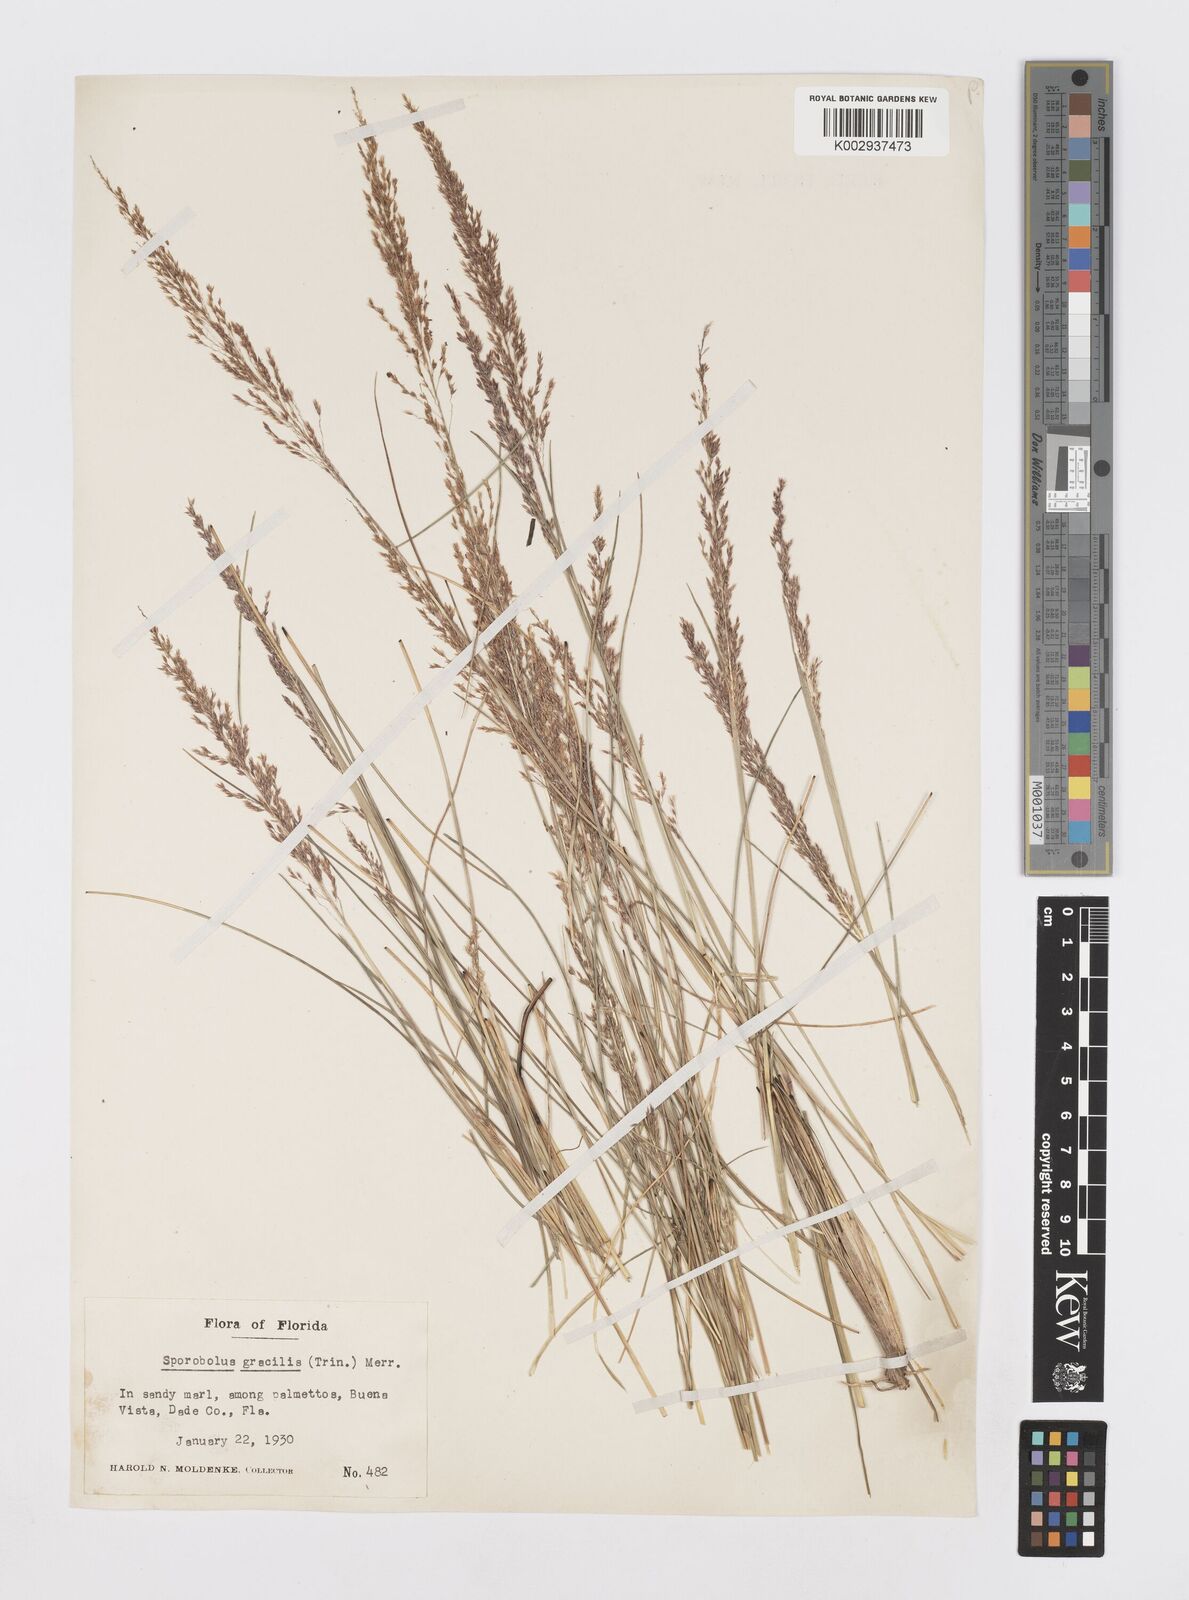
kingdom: Plantae
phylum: Tracheophyta
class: Liliopsida
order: Poales
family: Poaceae
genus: Sporobolus
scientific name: Sporobolus junceus
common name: Lizard grass
